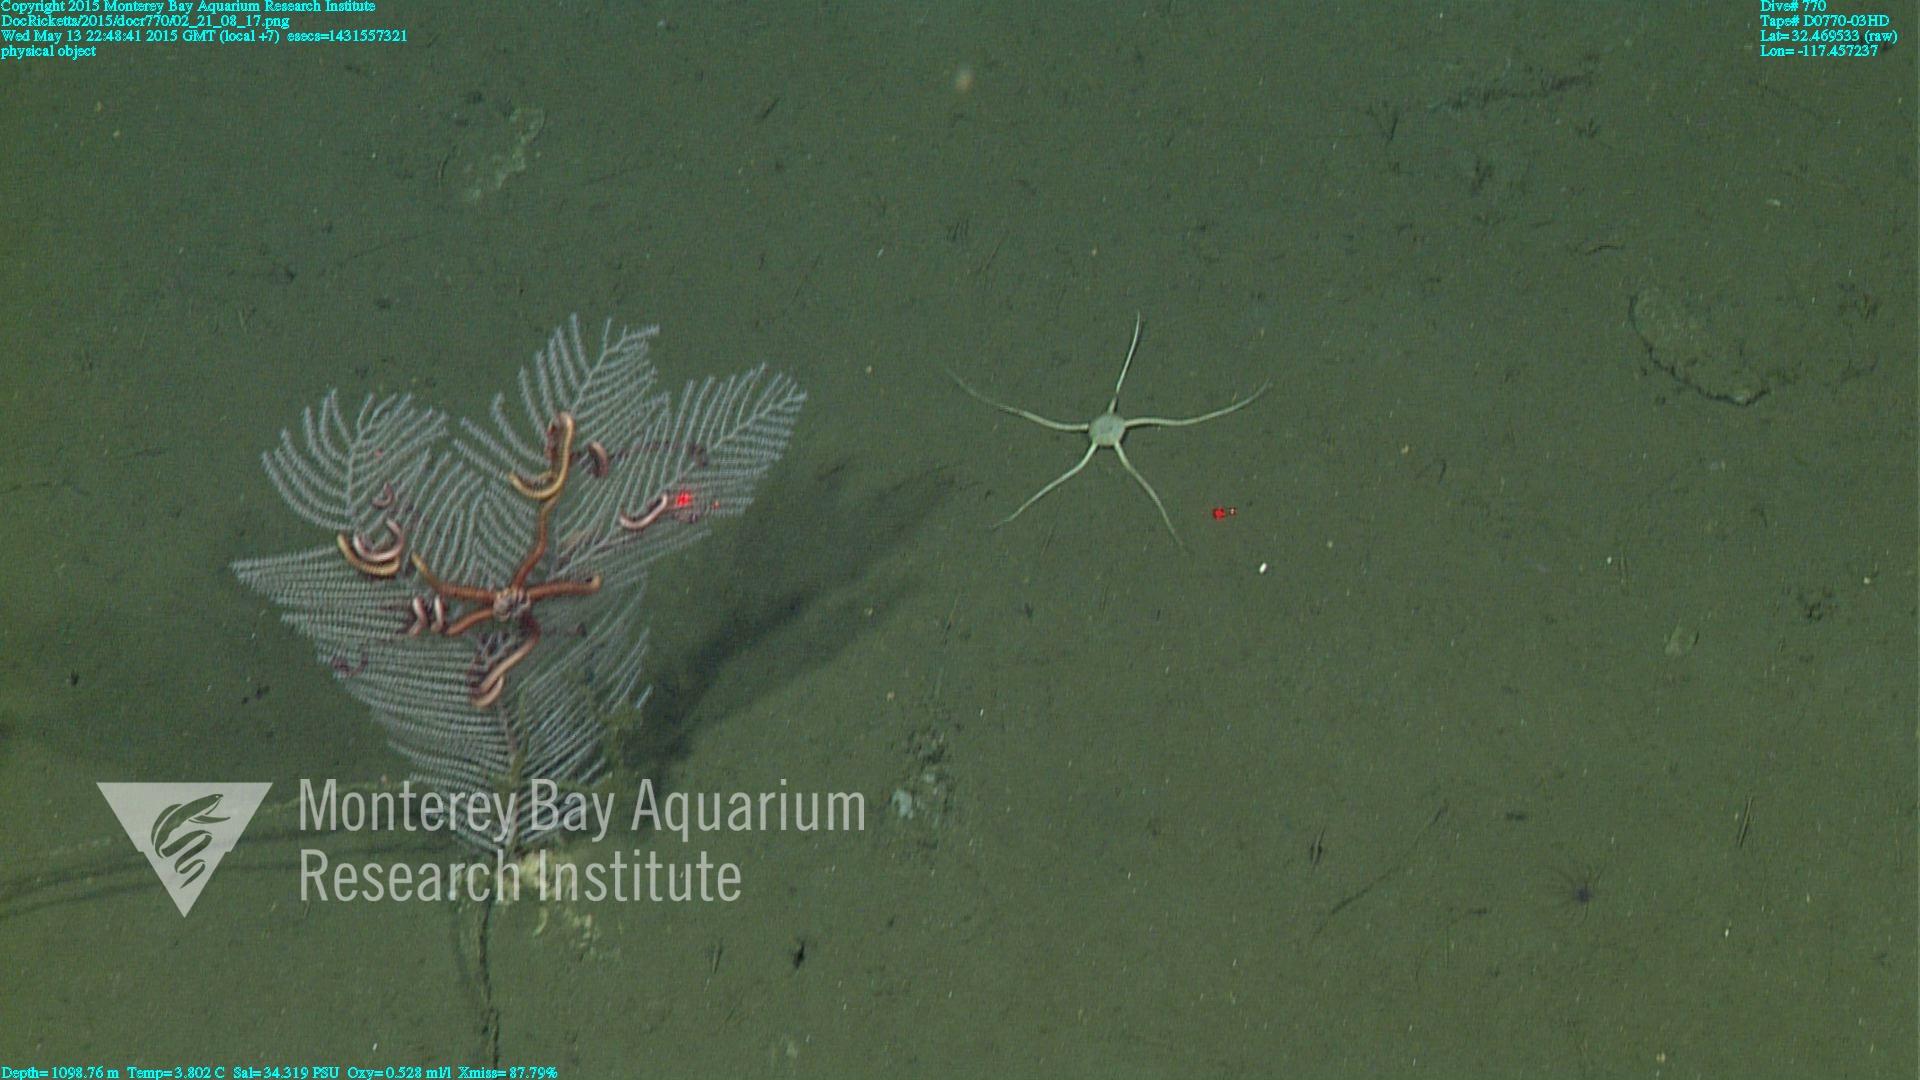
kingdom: Animalia
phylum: Cnidaria
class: Anthozoa
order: Scleralcyonacea
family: Primnoidae
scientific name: Primnoidae
